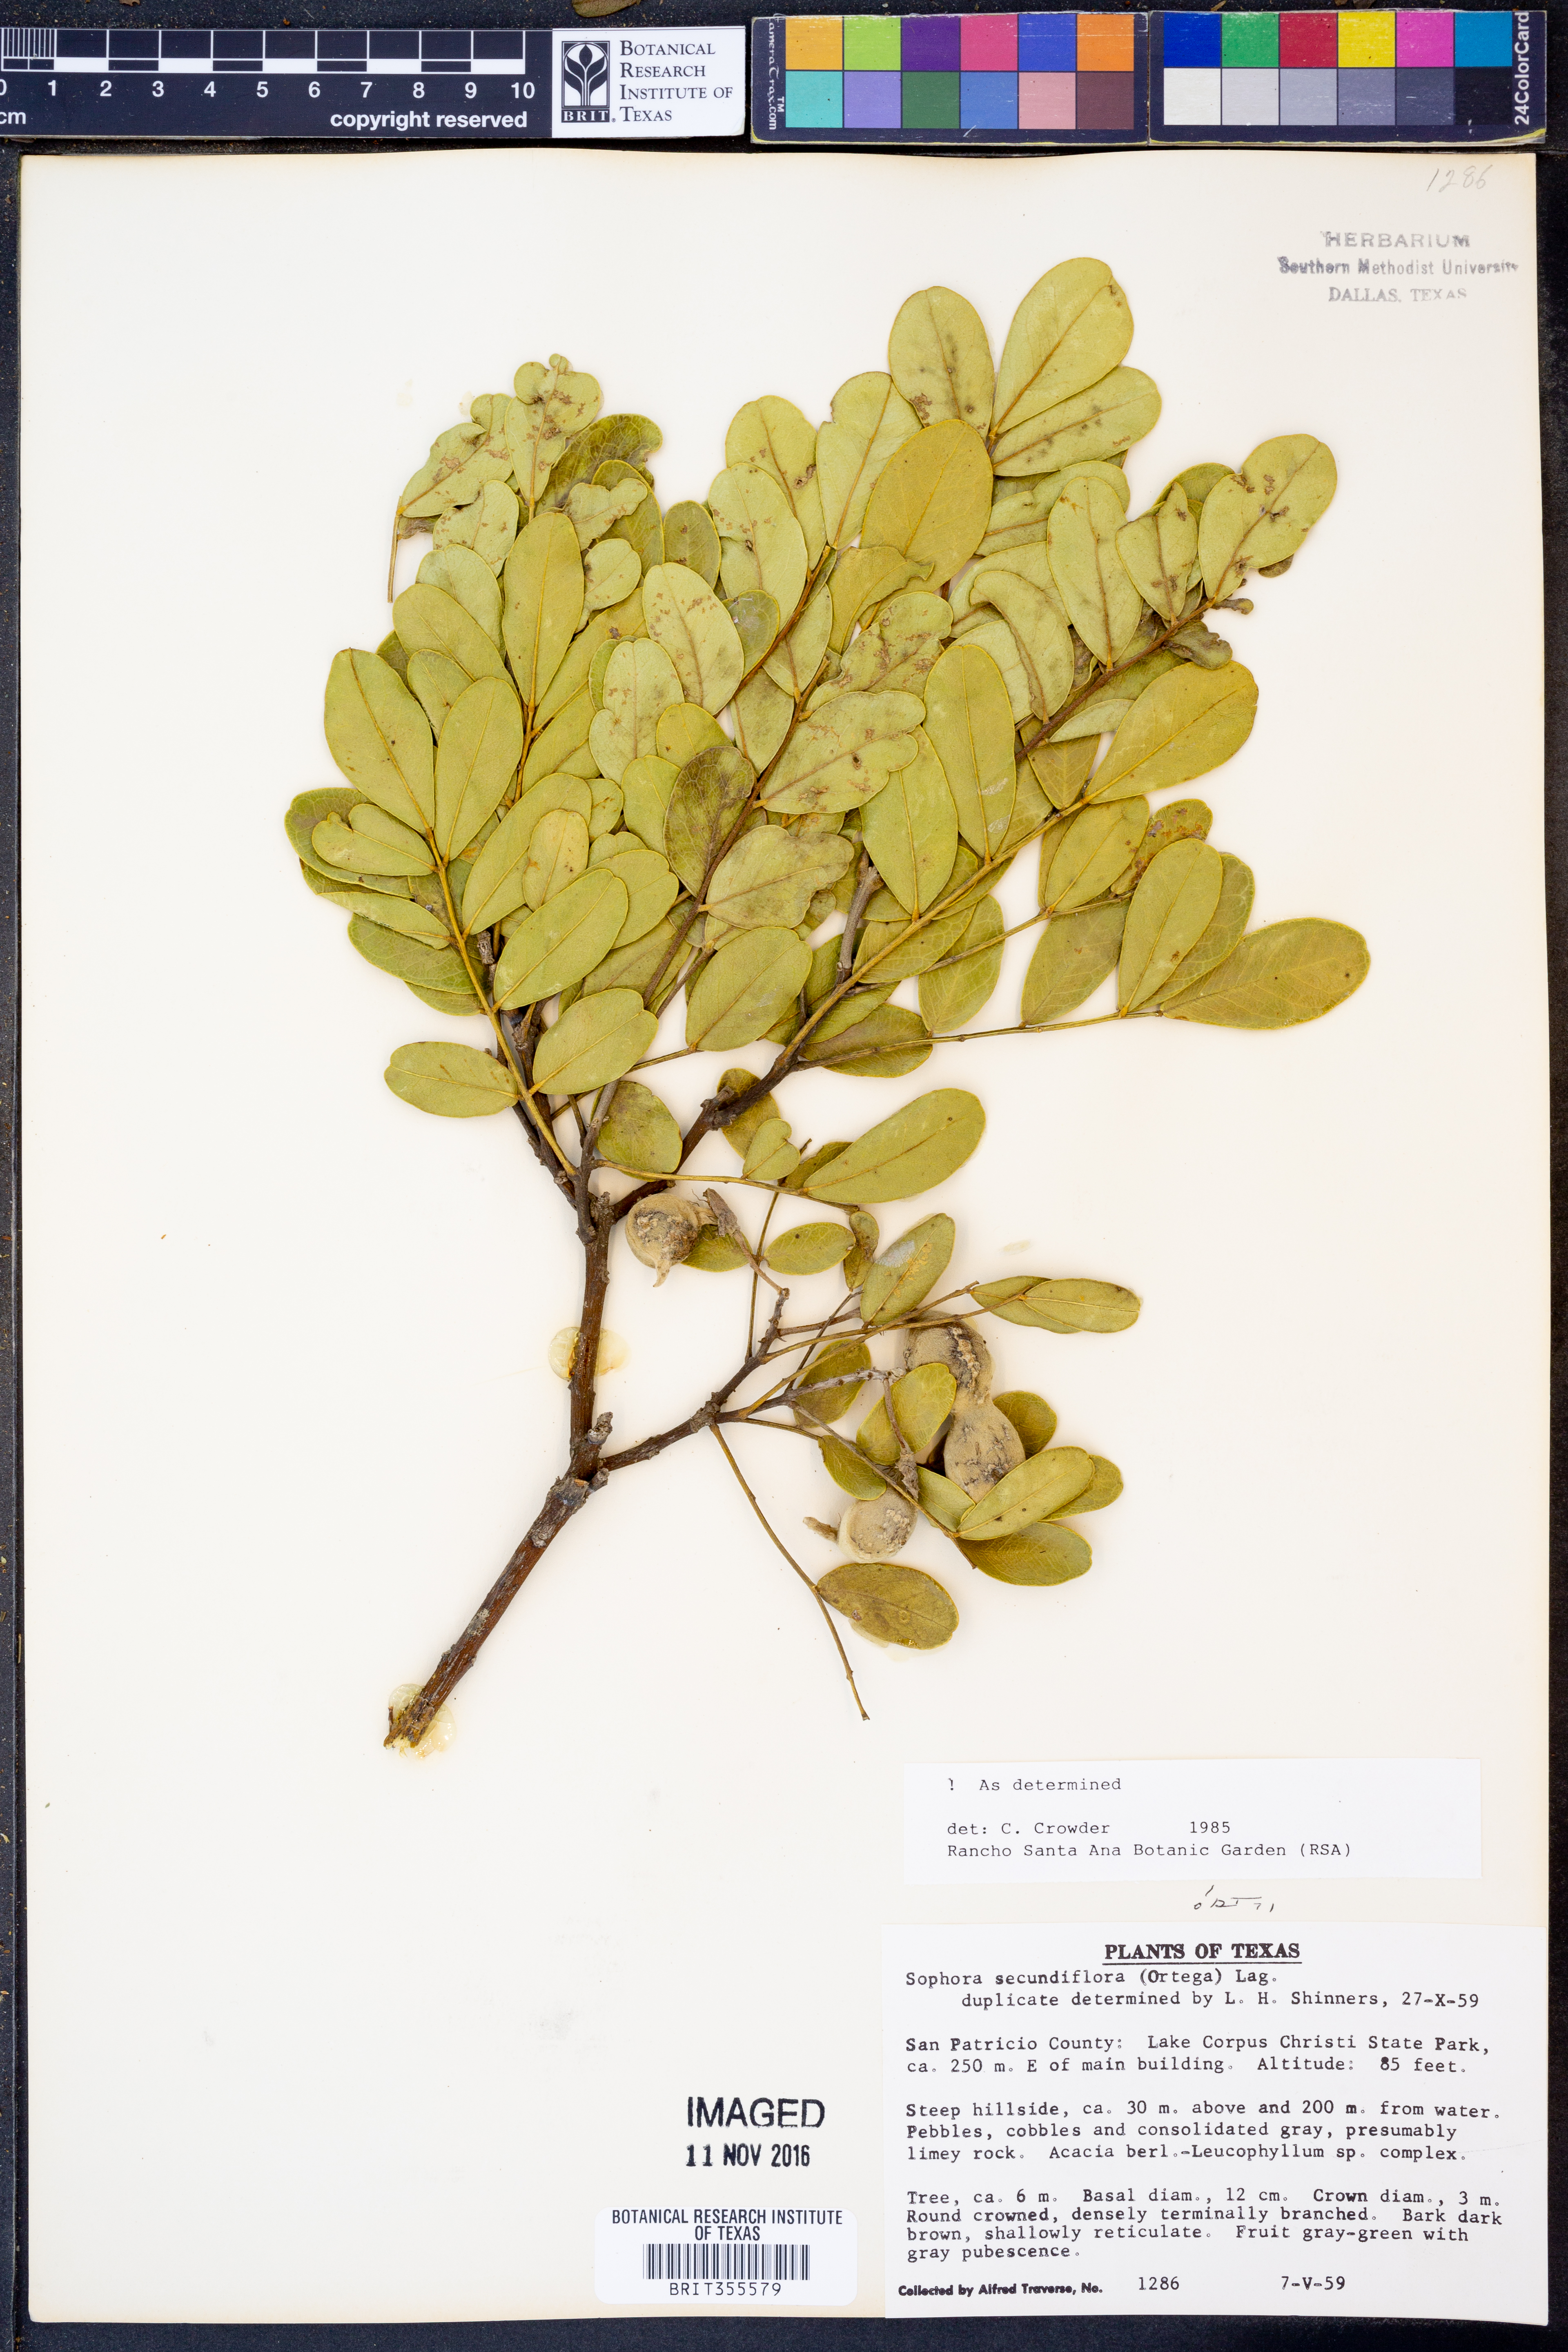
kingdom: Plantae
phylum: Tracheophyta
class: Magnoliopsida
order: Fabales
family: Fabaceae
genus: Dermatophyllum
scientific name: Dermatophyllum secundiflorum
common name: Texas-mountain-laurel
